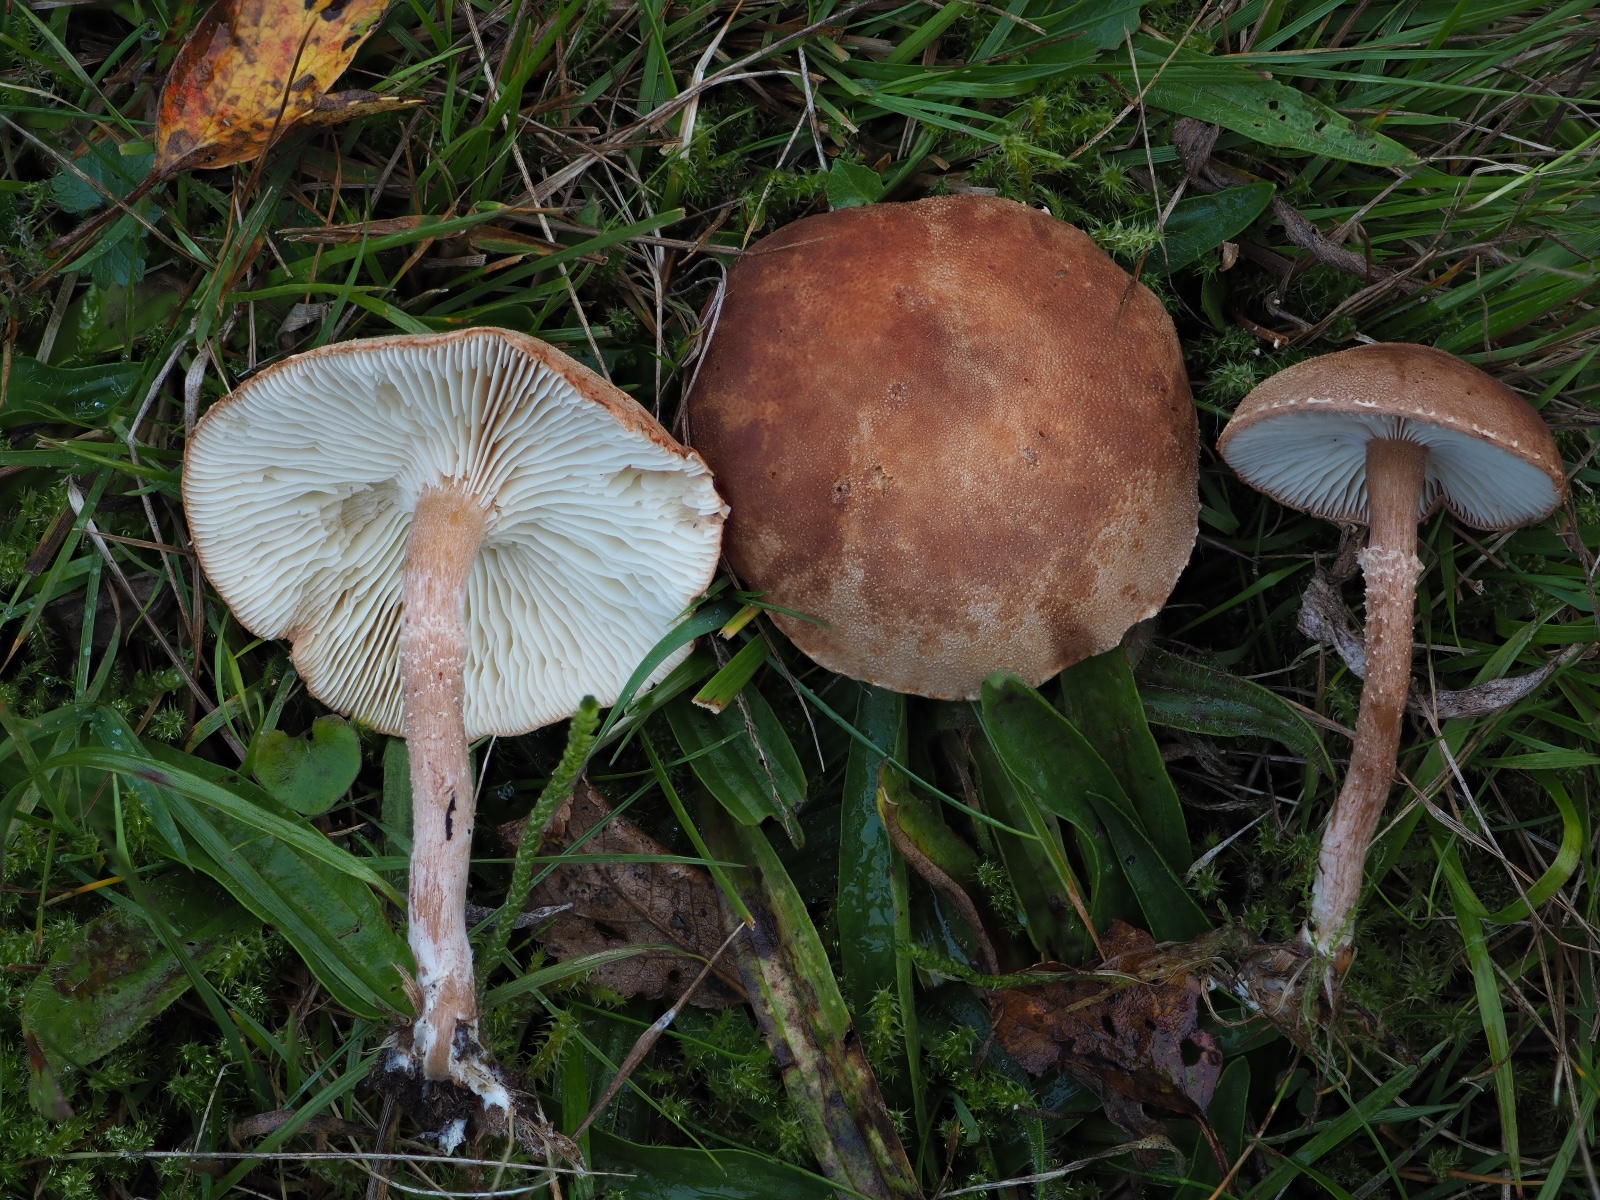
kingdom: Fungi
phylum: Basidiomycota
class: Agaricomycetes
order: Agaricales
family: Agaricaceae
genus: Cystodermella
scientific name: Cystodermella granulosa
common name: kliddet grynhat
